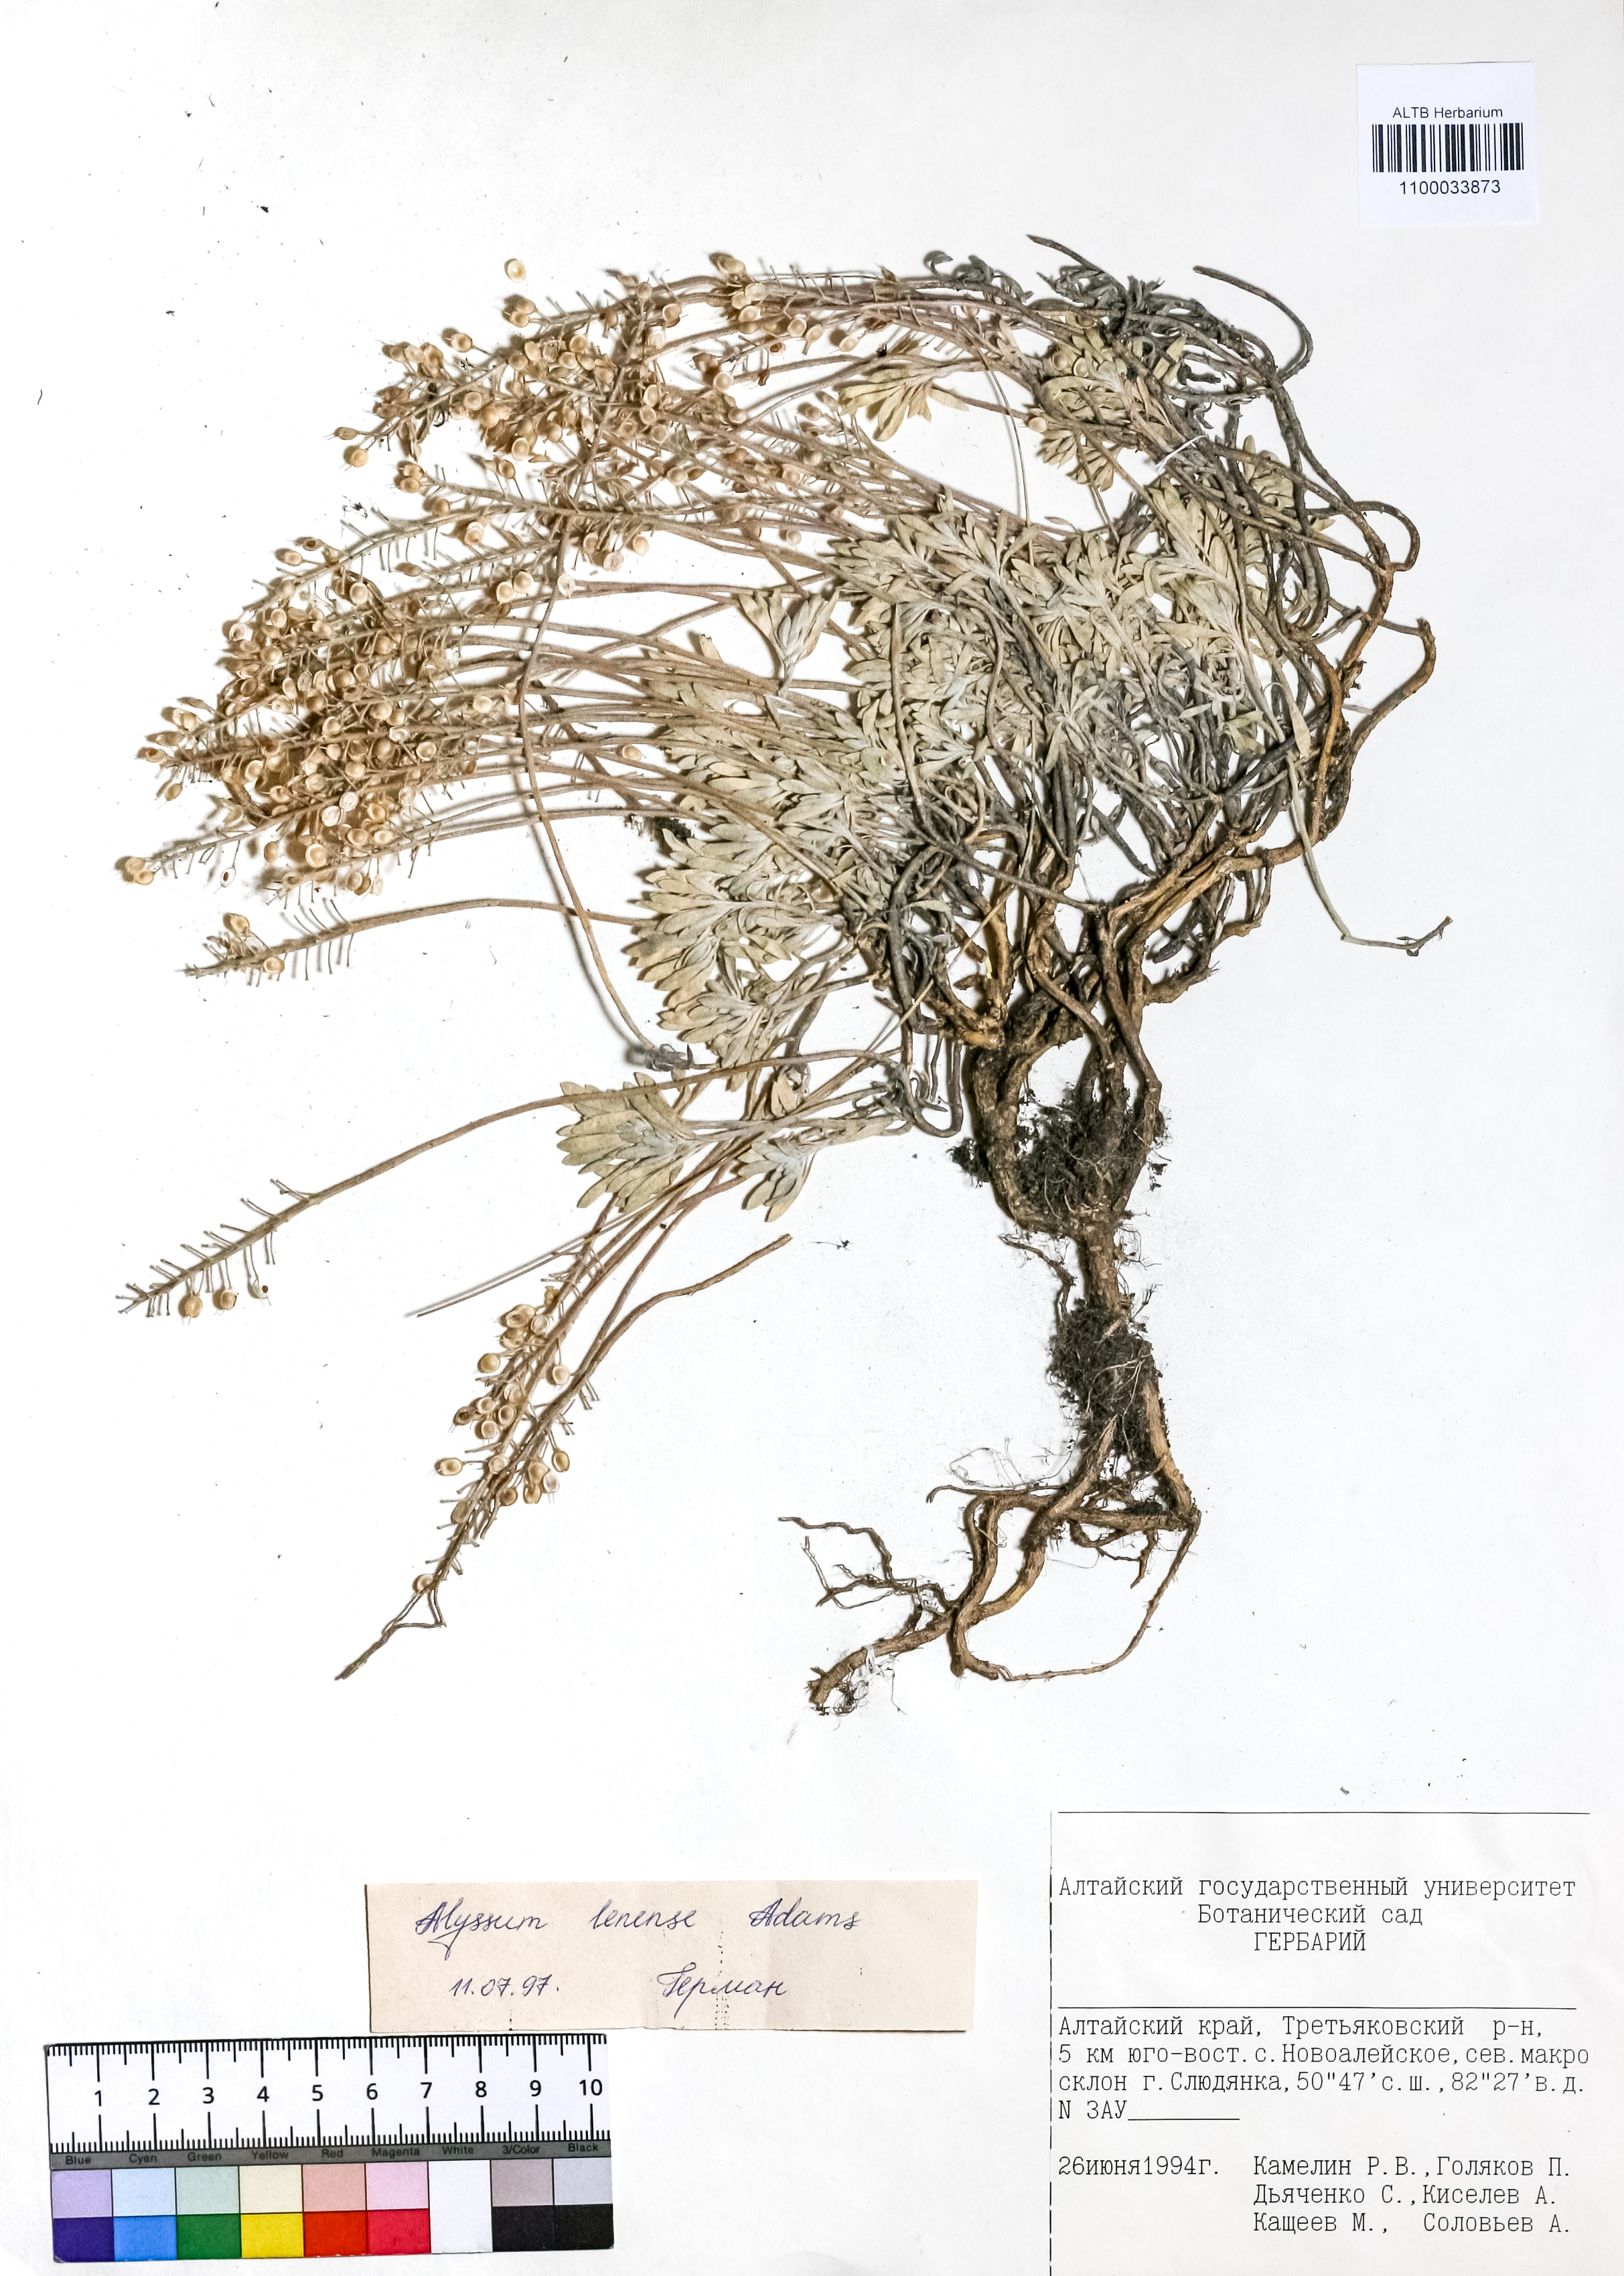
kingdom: Plantae
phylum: Tracheophyta
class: Magnoliopsida
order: Brassicales
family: Brassicaceae
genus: Alyssum
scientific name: Alyssum lenense
